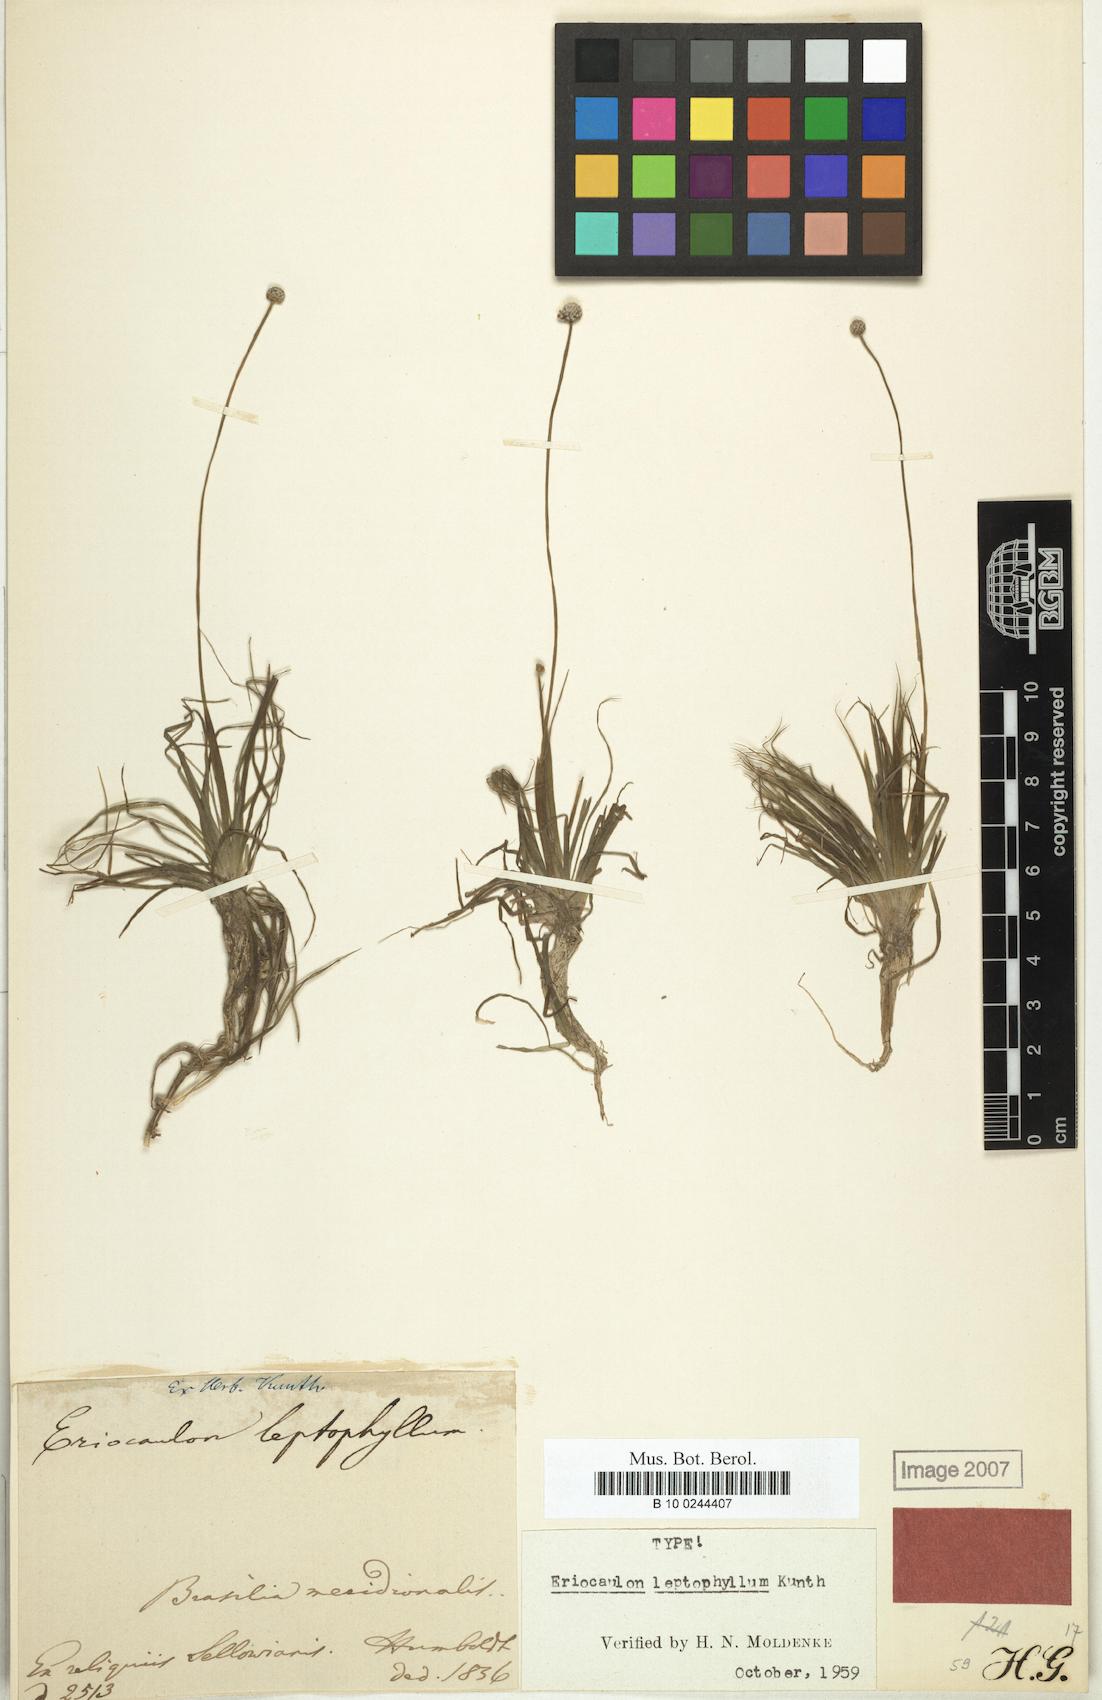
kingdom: Plantae
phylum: Tracheophyta
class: Liliopsida
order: Poales
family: Eriocaulaceae
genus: Eriocaulon
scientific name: Eriocaulon leptophyllum
